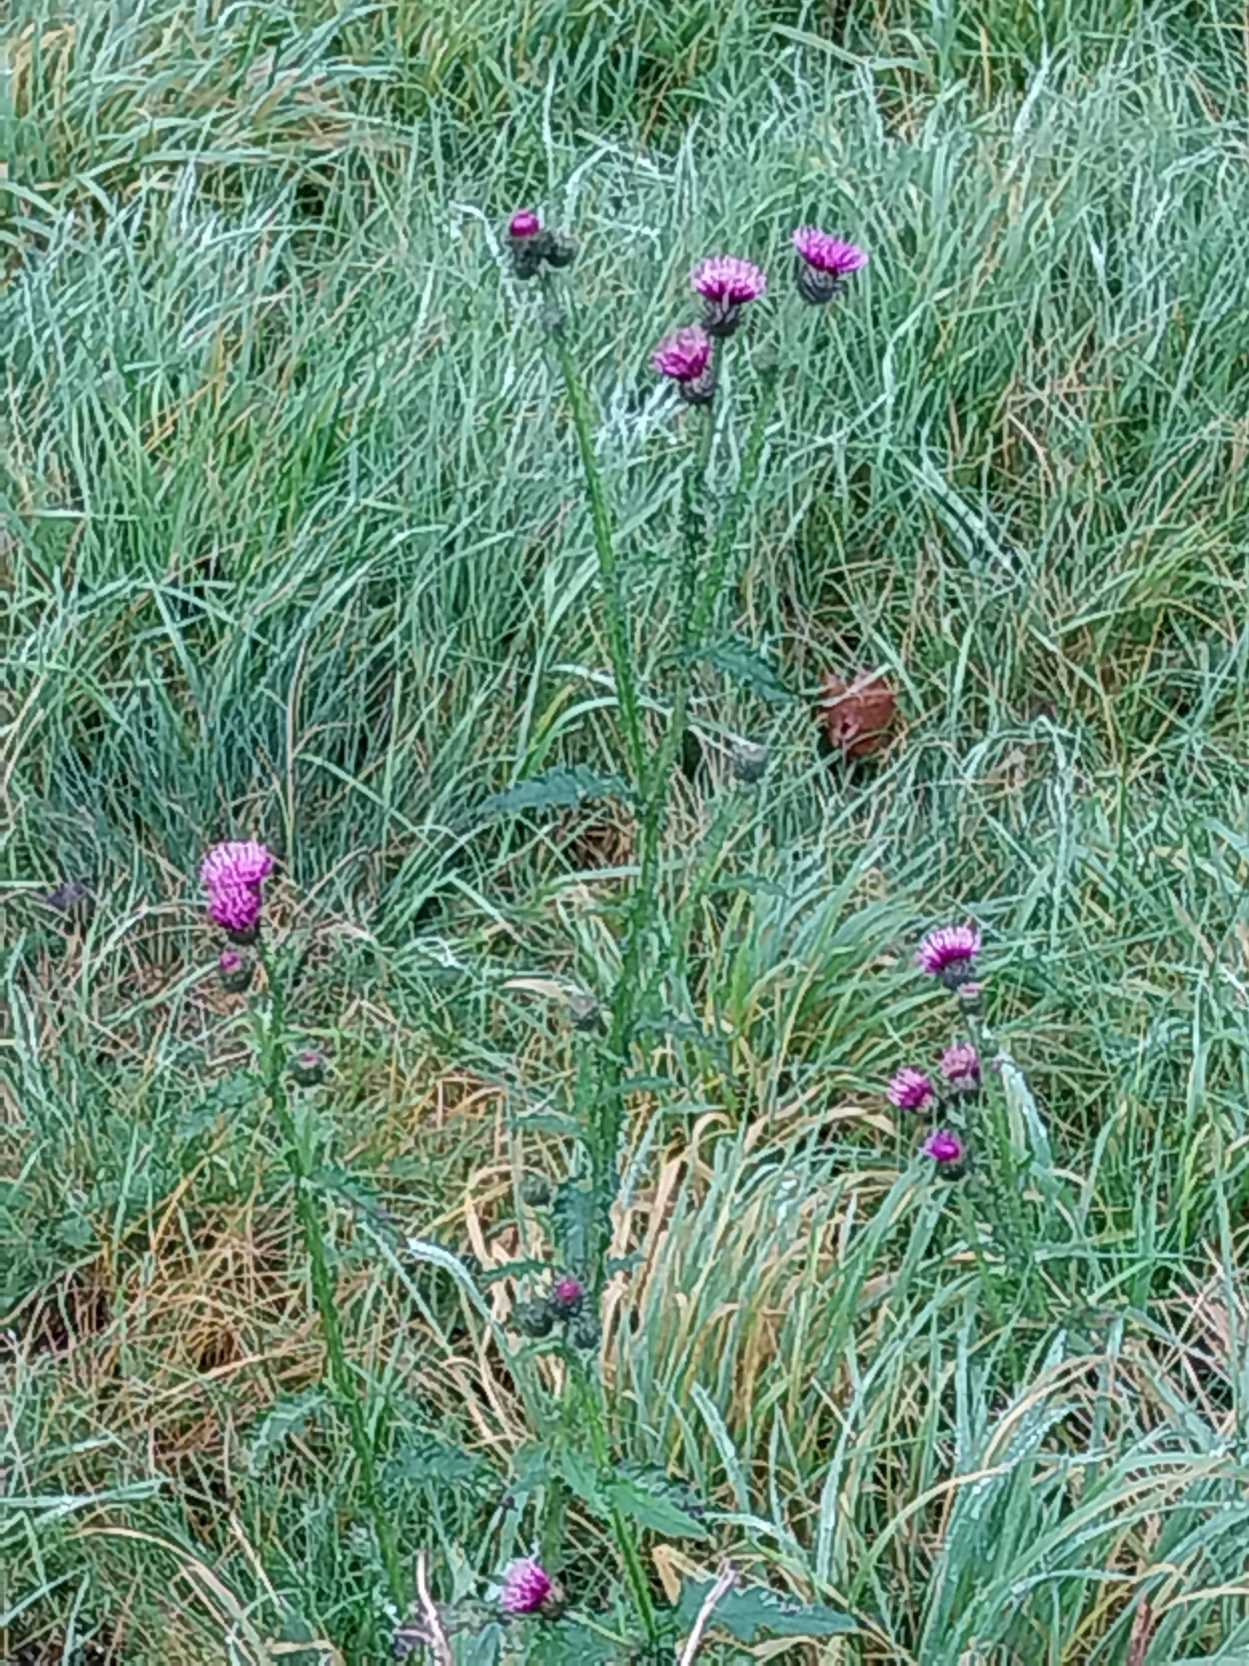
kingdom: Plantae
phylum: Tracheophyta
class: Magnoliopsida
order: Asterales
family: Asteraceae
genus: Carduus
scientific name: Carduus crispus
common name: Kruset tidsel
